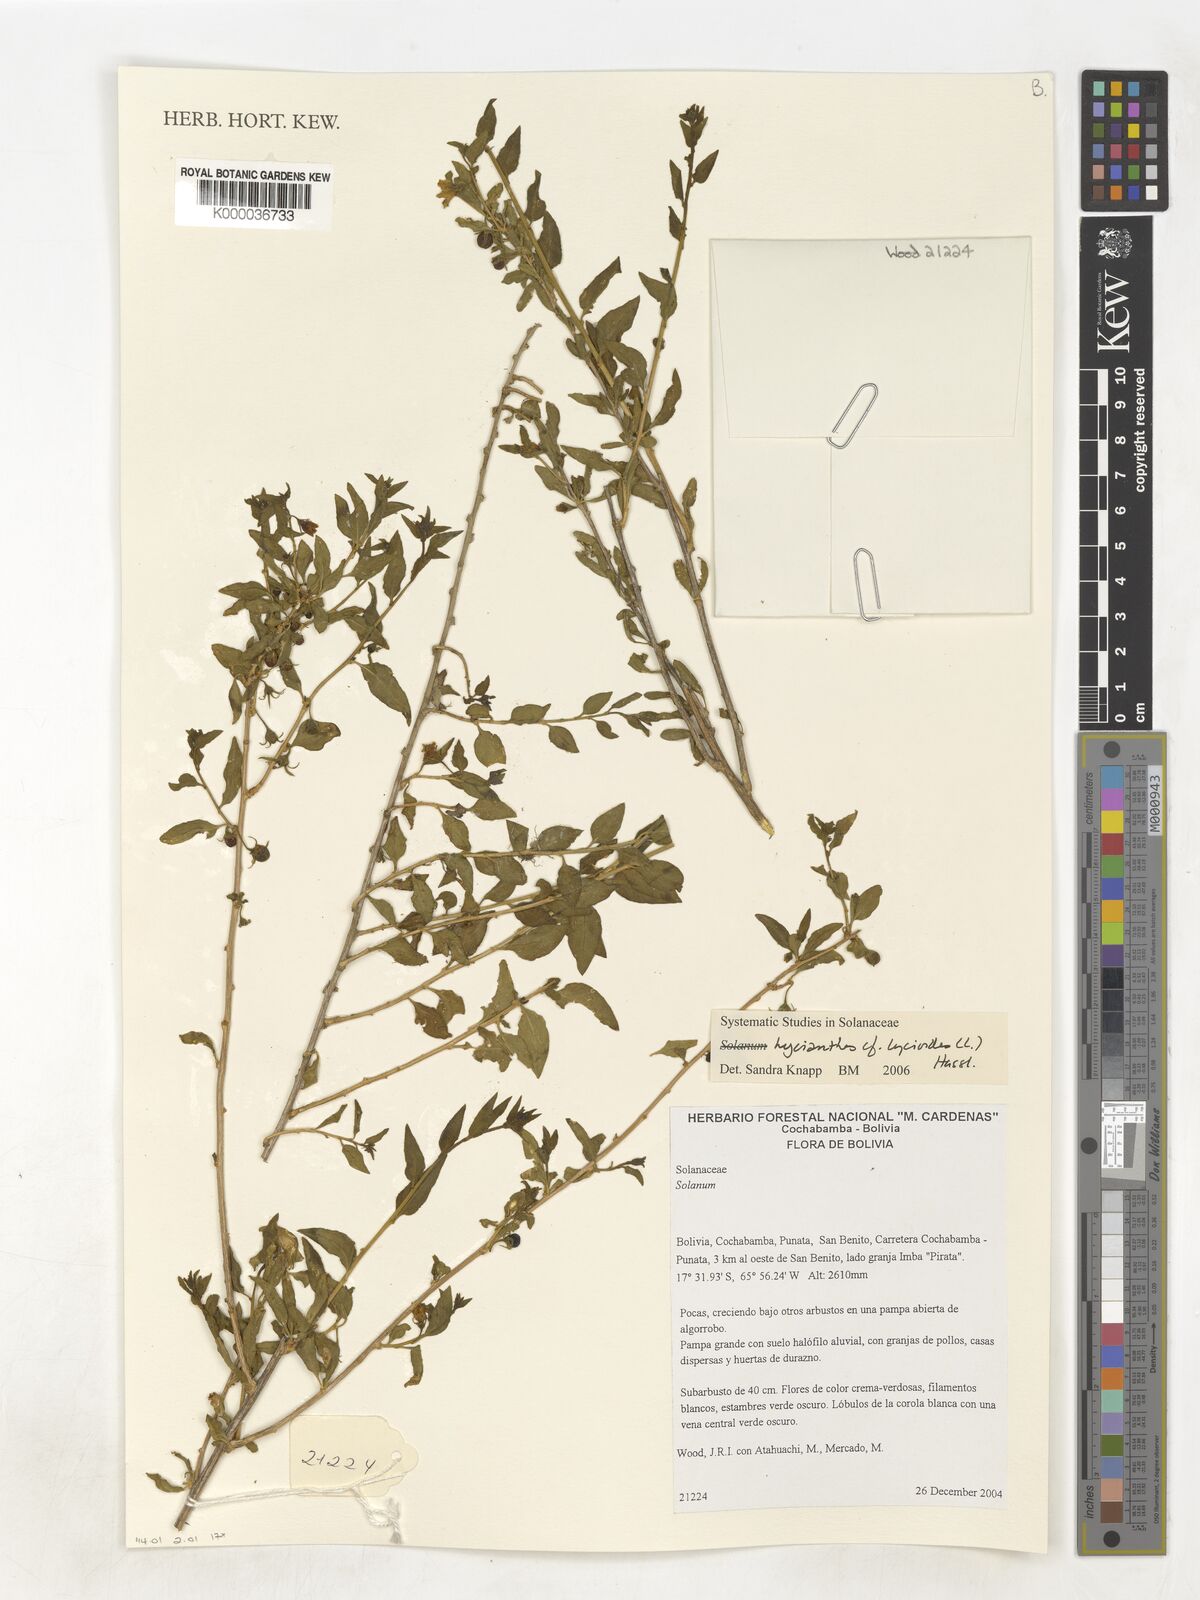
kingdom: Plantae
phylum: Tracheophyta
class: Magnoliopsida
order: Solanales
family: Solanaceae
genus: Lycianthes
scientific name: Lycianthes lycioides
